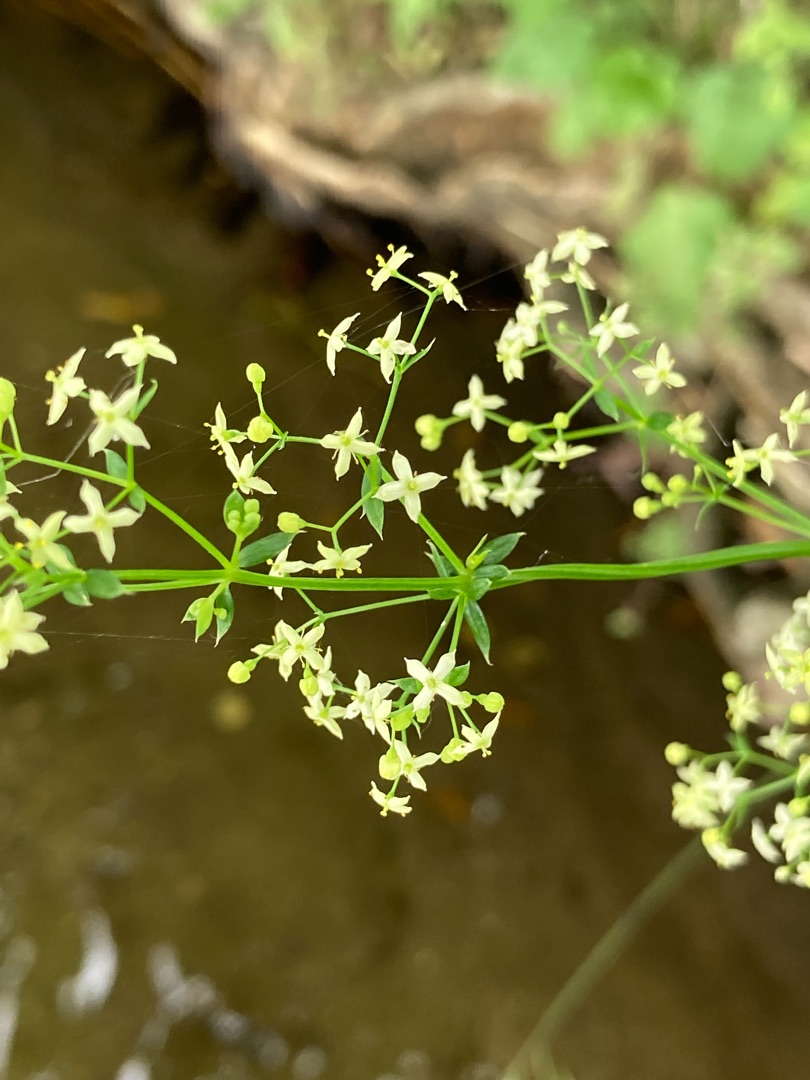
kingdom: Plantae
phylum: Tracheophyta
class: Magnoliopsida
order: Gentianales
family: Rubiaceae
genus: Galium
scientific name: Galium mollugo
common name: Hvid snerre
